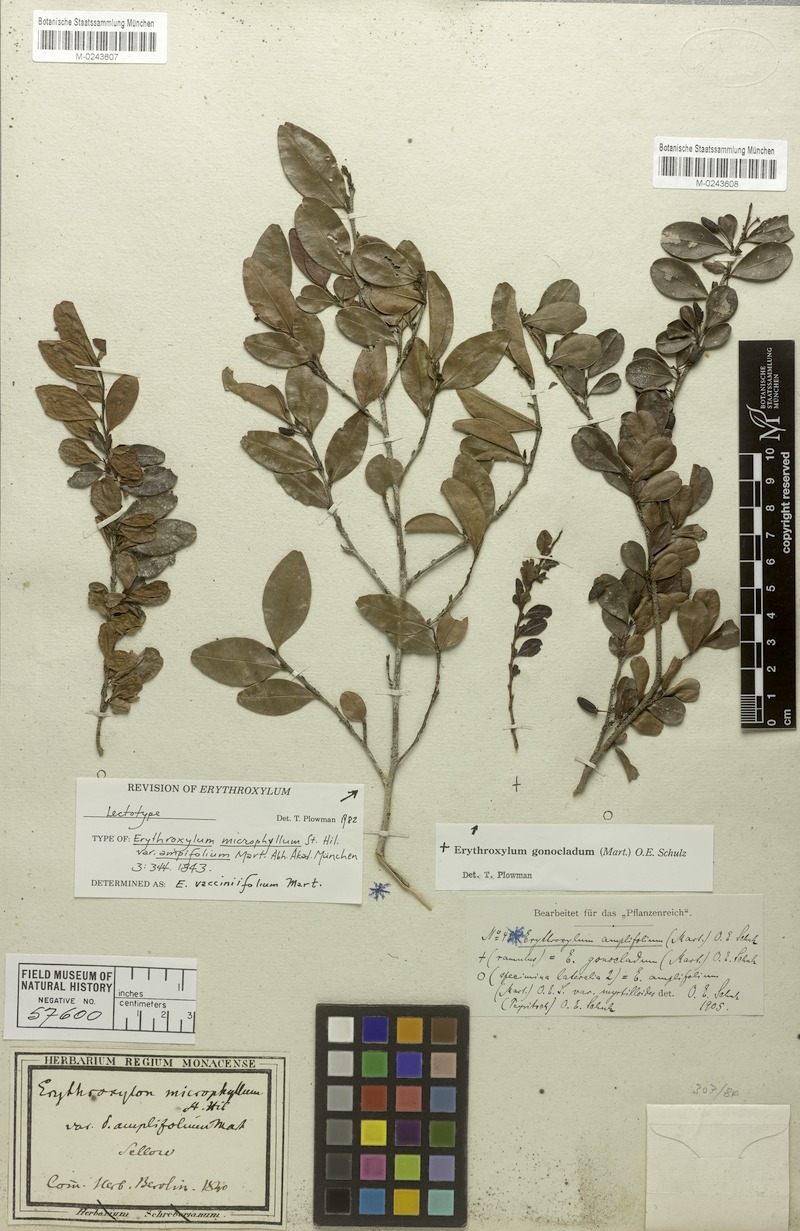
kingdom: Plantae
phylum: Tracheophyta
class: Magnoliopsida
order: Malpighiales
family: Erythroxylaceae
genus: Erythroxylum
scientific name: Erythroxylum vaccinifolium
